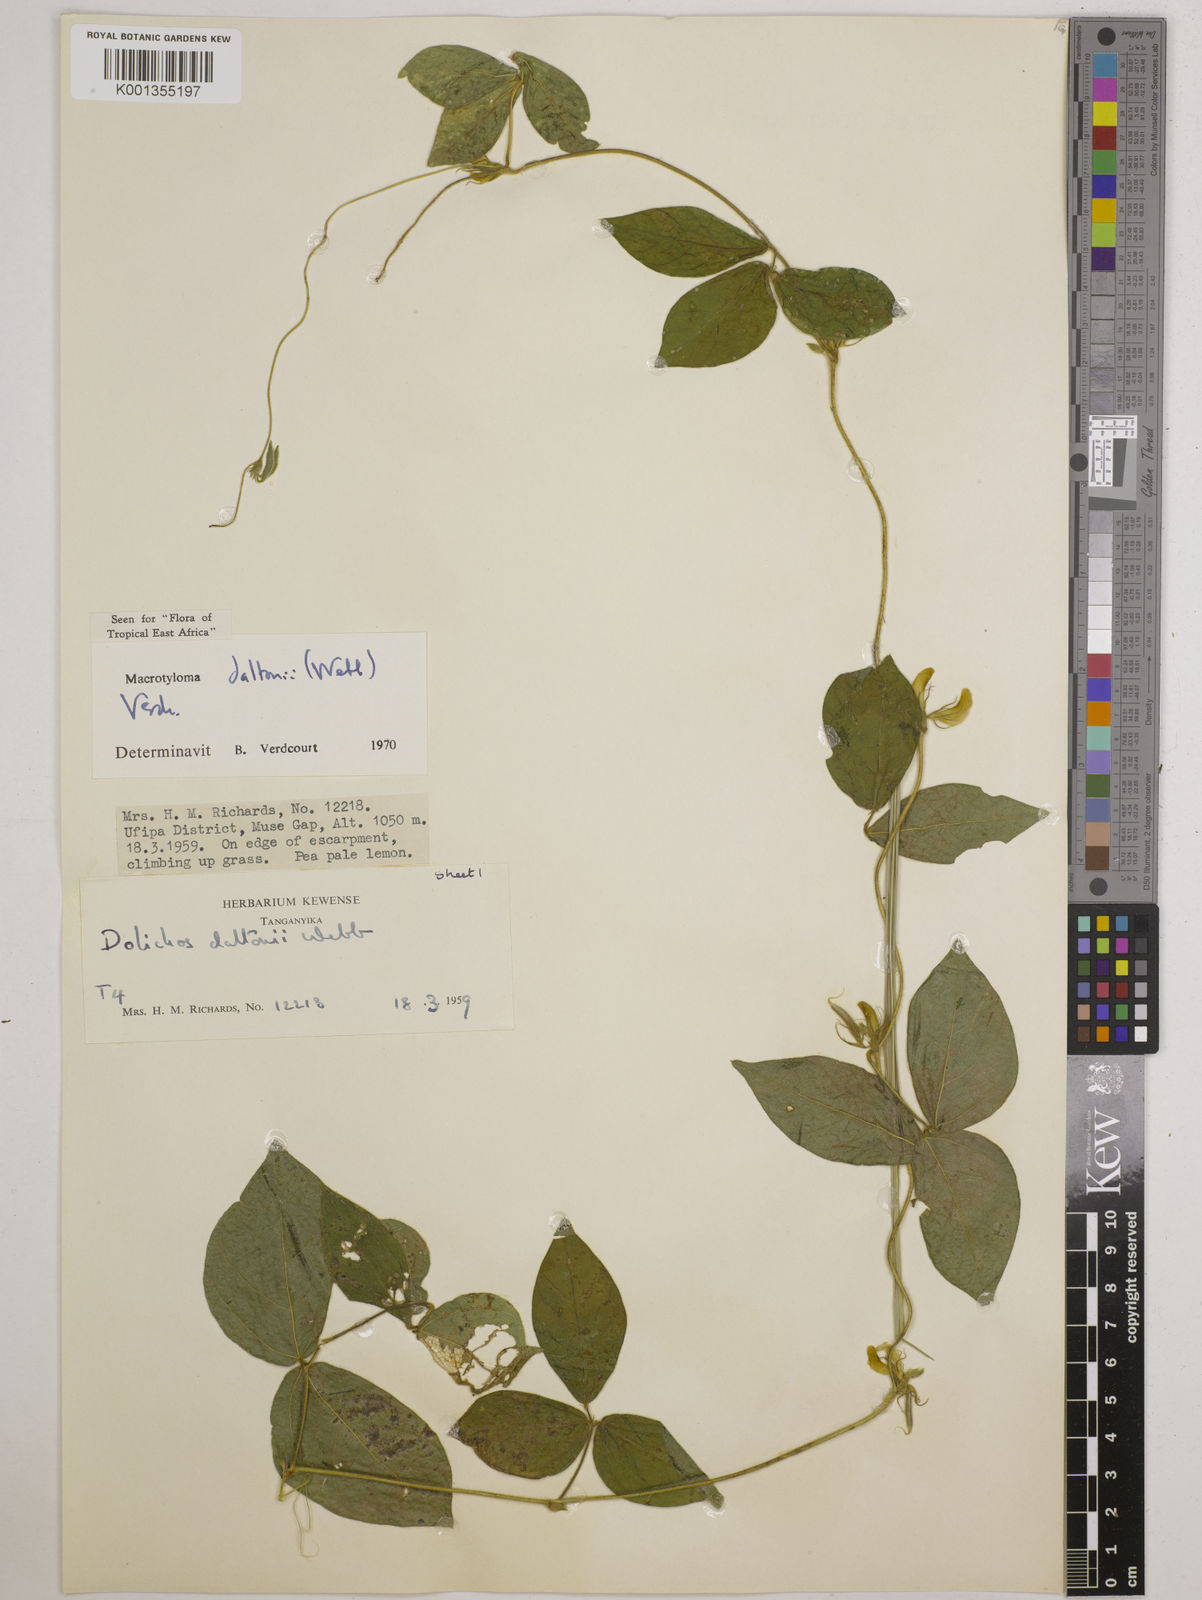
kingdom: Plantae
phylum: Tracheophyta
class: Magnoliopsida
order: Fabales
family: Fabaceae
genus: Macrotyloma
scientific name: Macrotyloma daltonii
